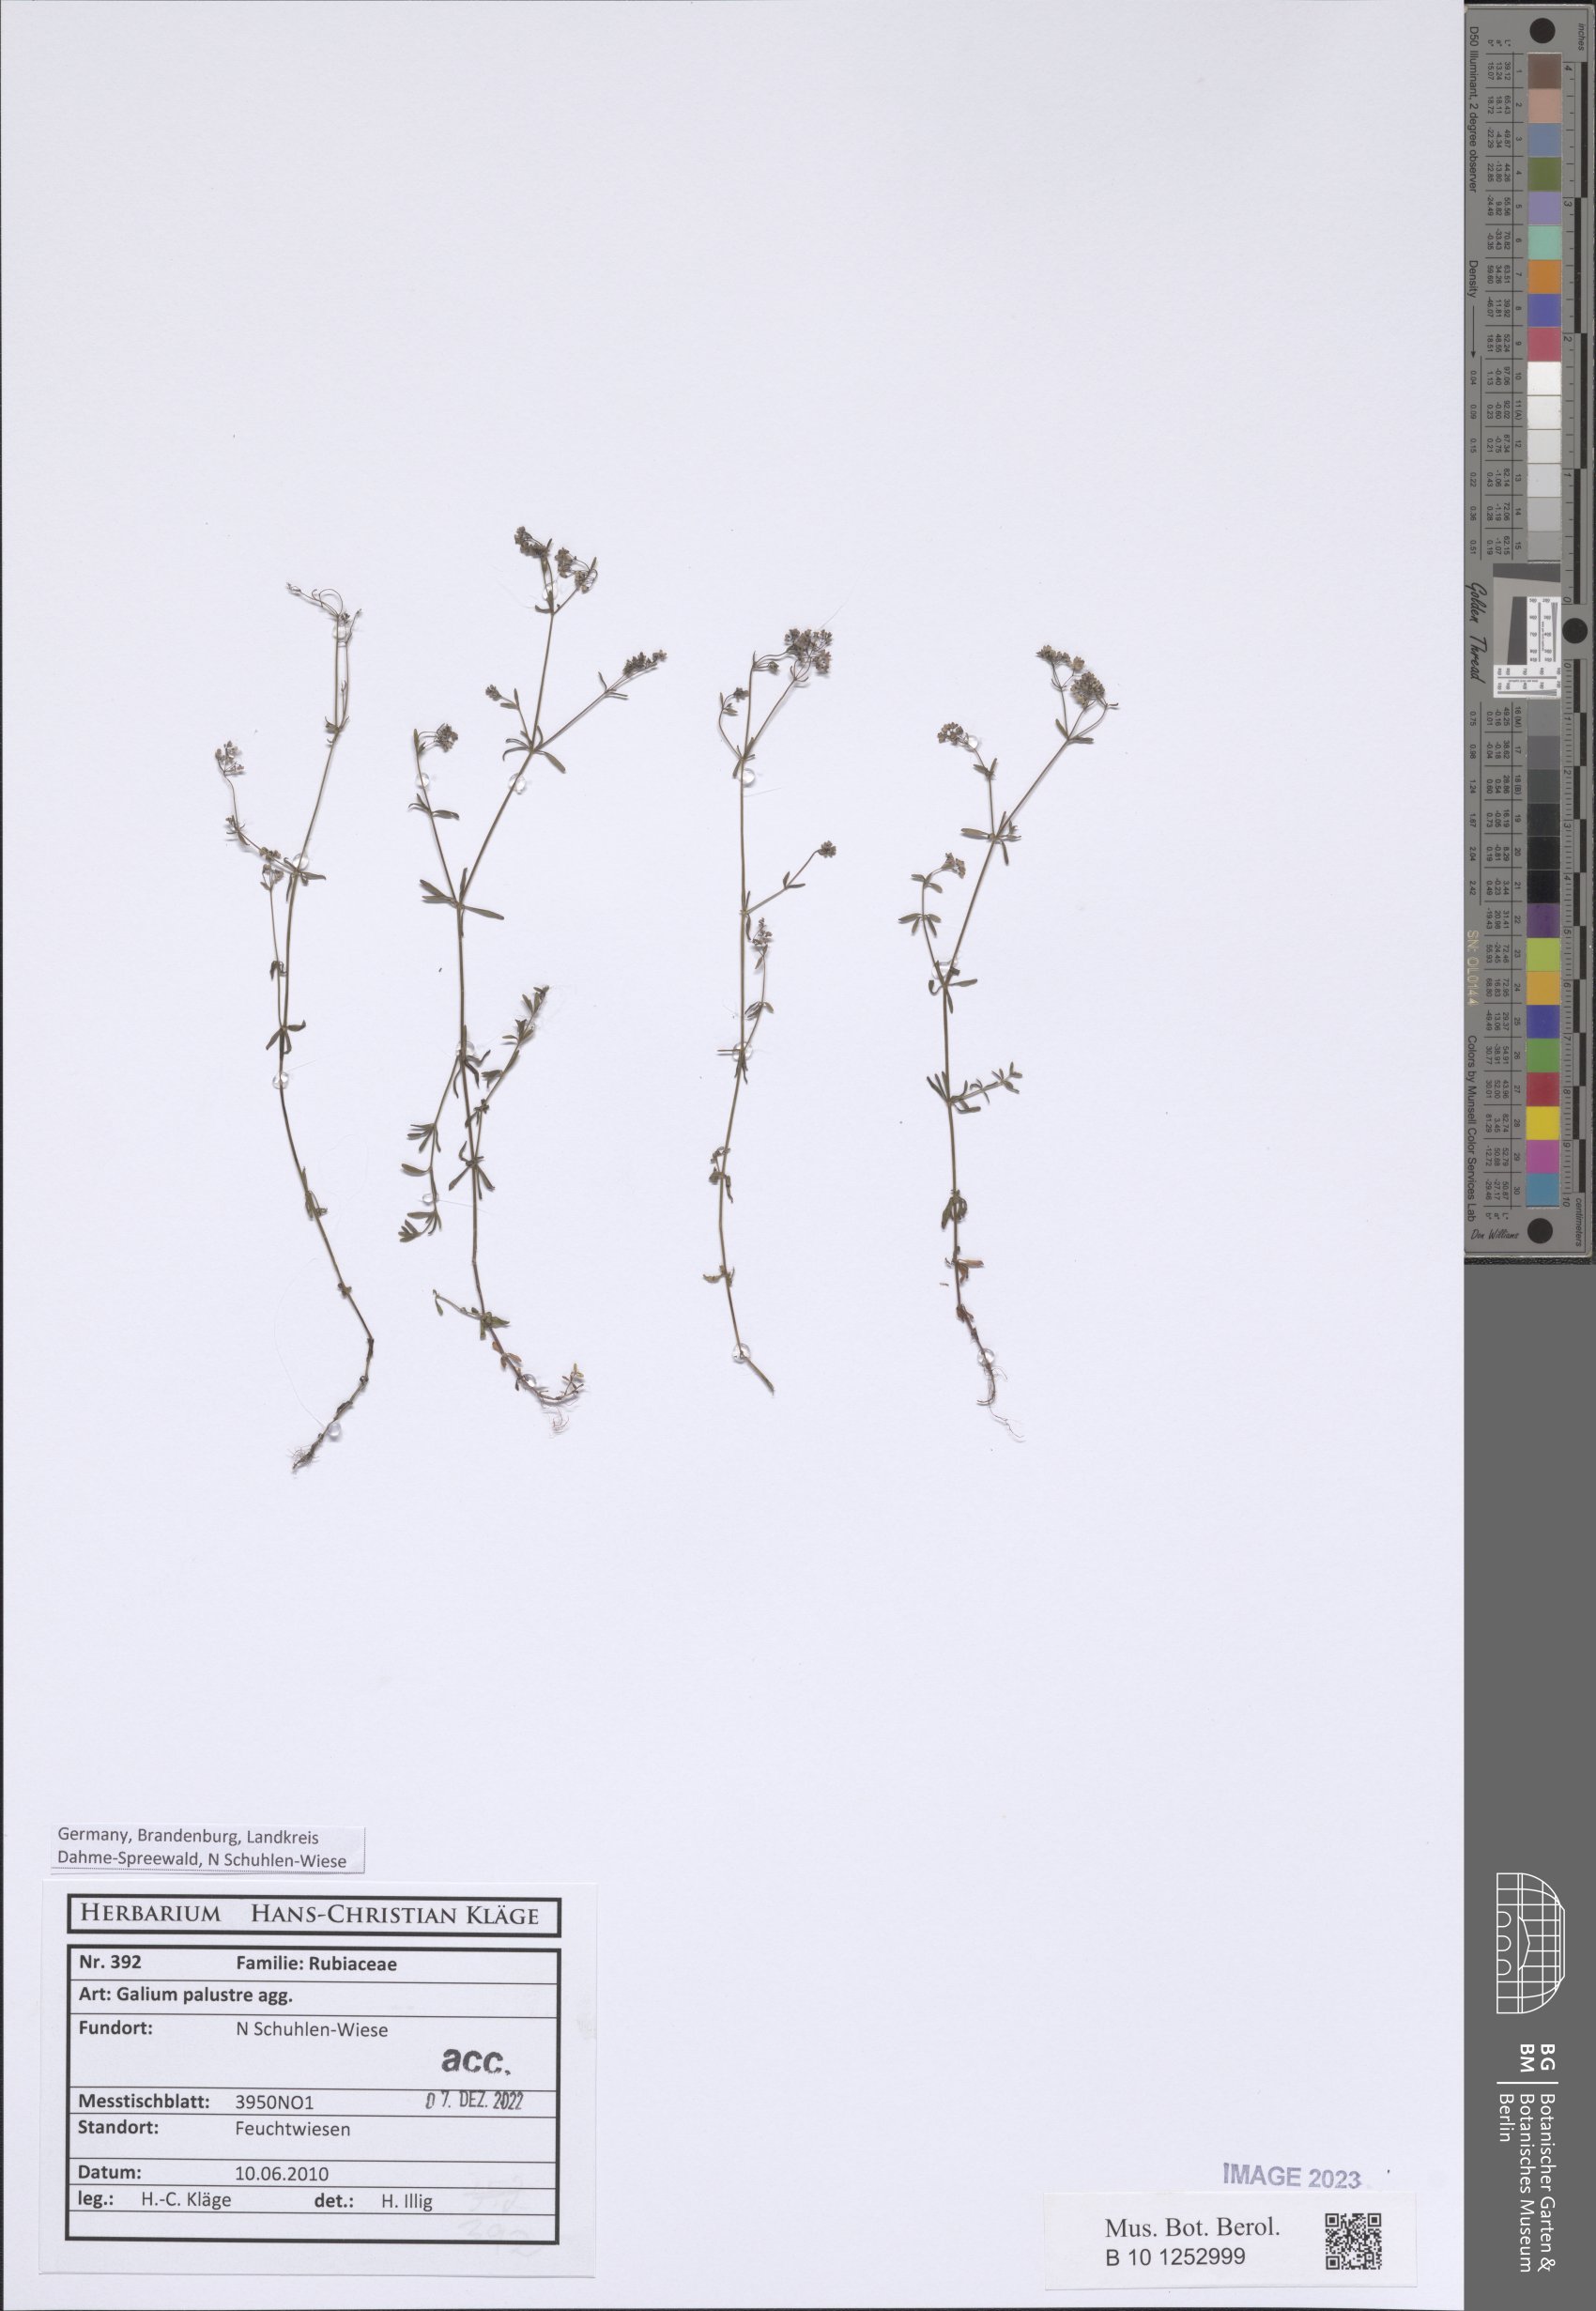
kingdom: Plantae
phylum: Tracheophyta
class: Magnoliopsida
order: Gentianales
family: Rubiaceae
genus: Galium
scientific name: Galium palustre
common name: Common marsh-bedstraw
